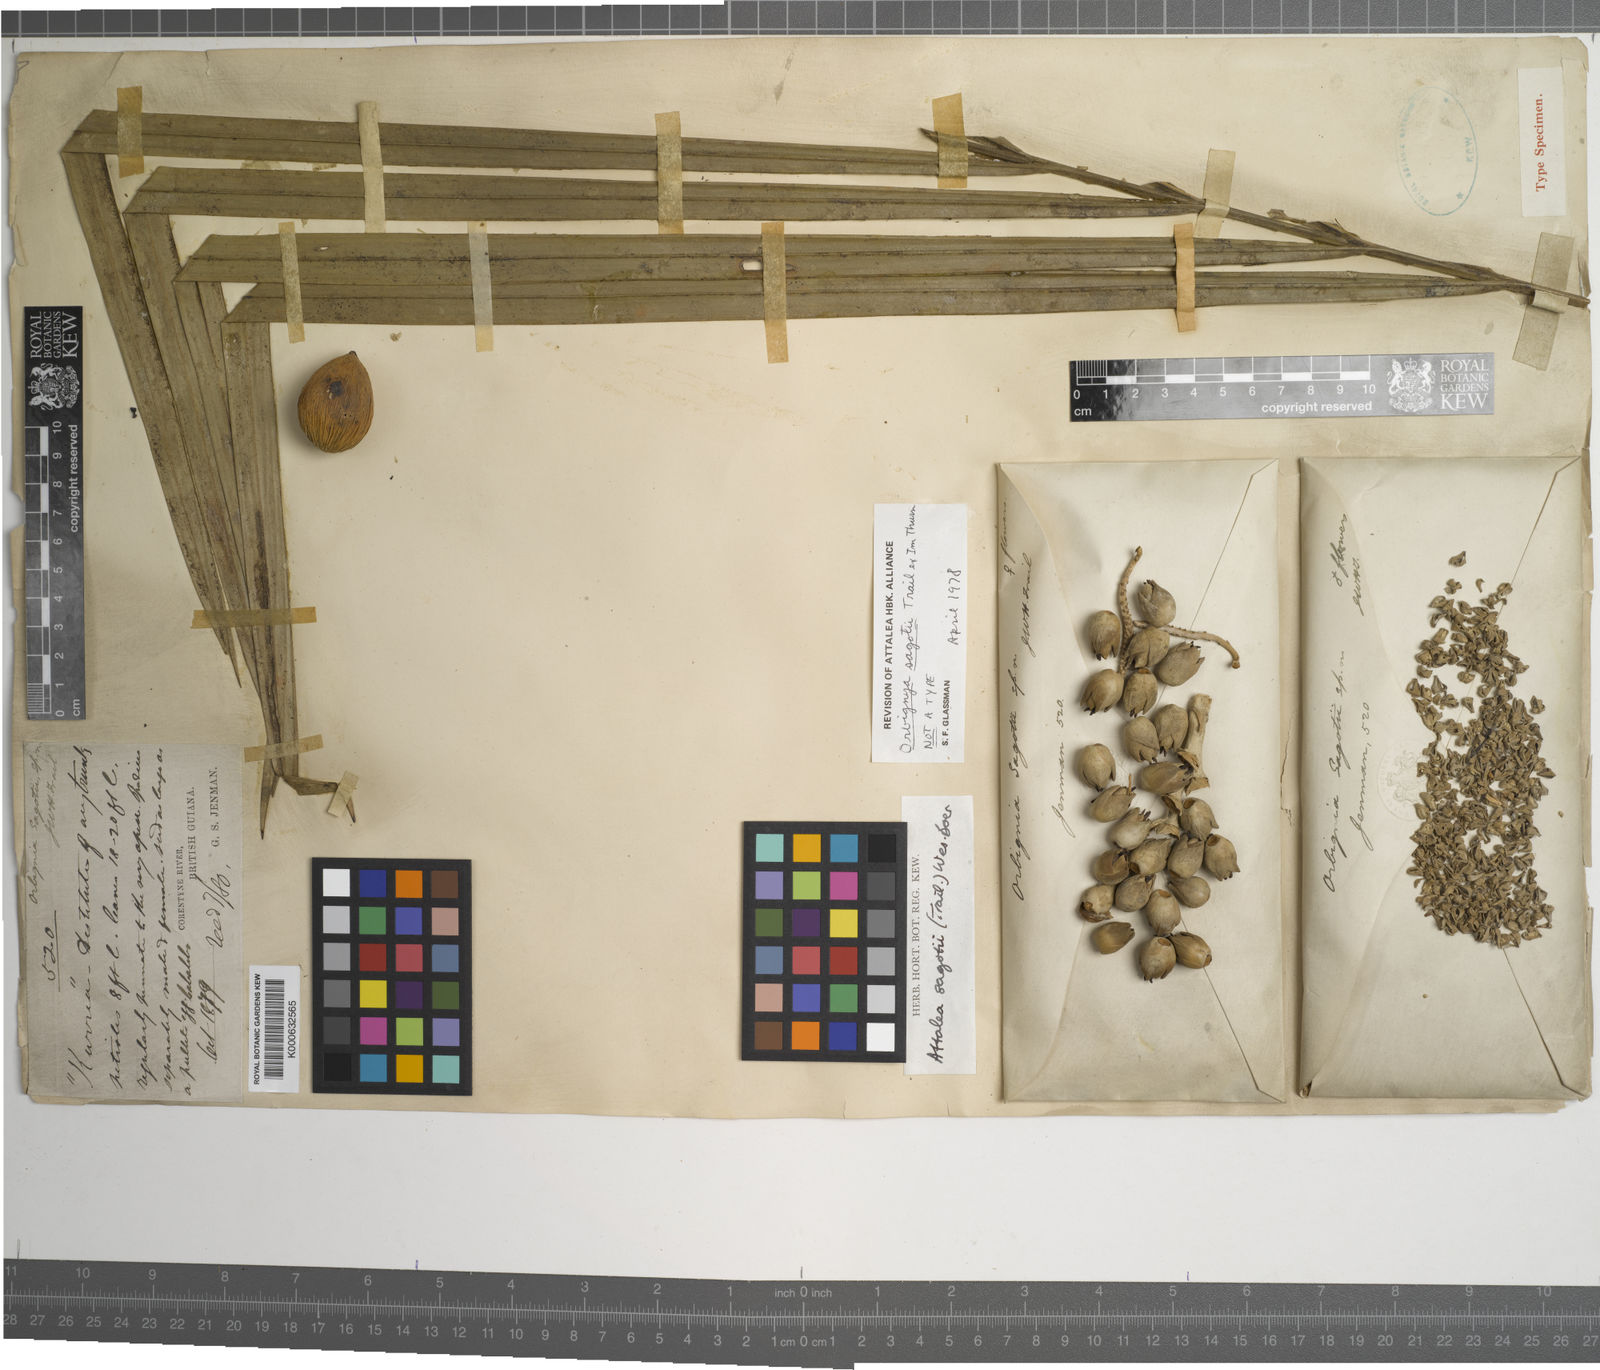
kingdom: Plantae
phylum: Tracheophyta
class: Liliopsida
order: Arecales
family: Arecaceae
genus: Attalea
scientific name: Attalea microcarpa
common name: Mountain maripa
